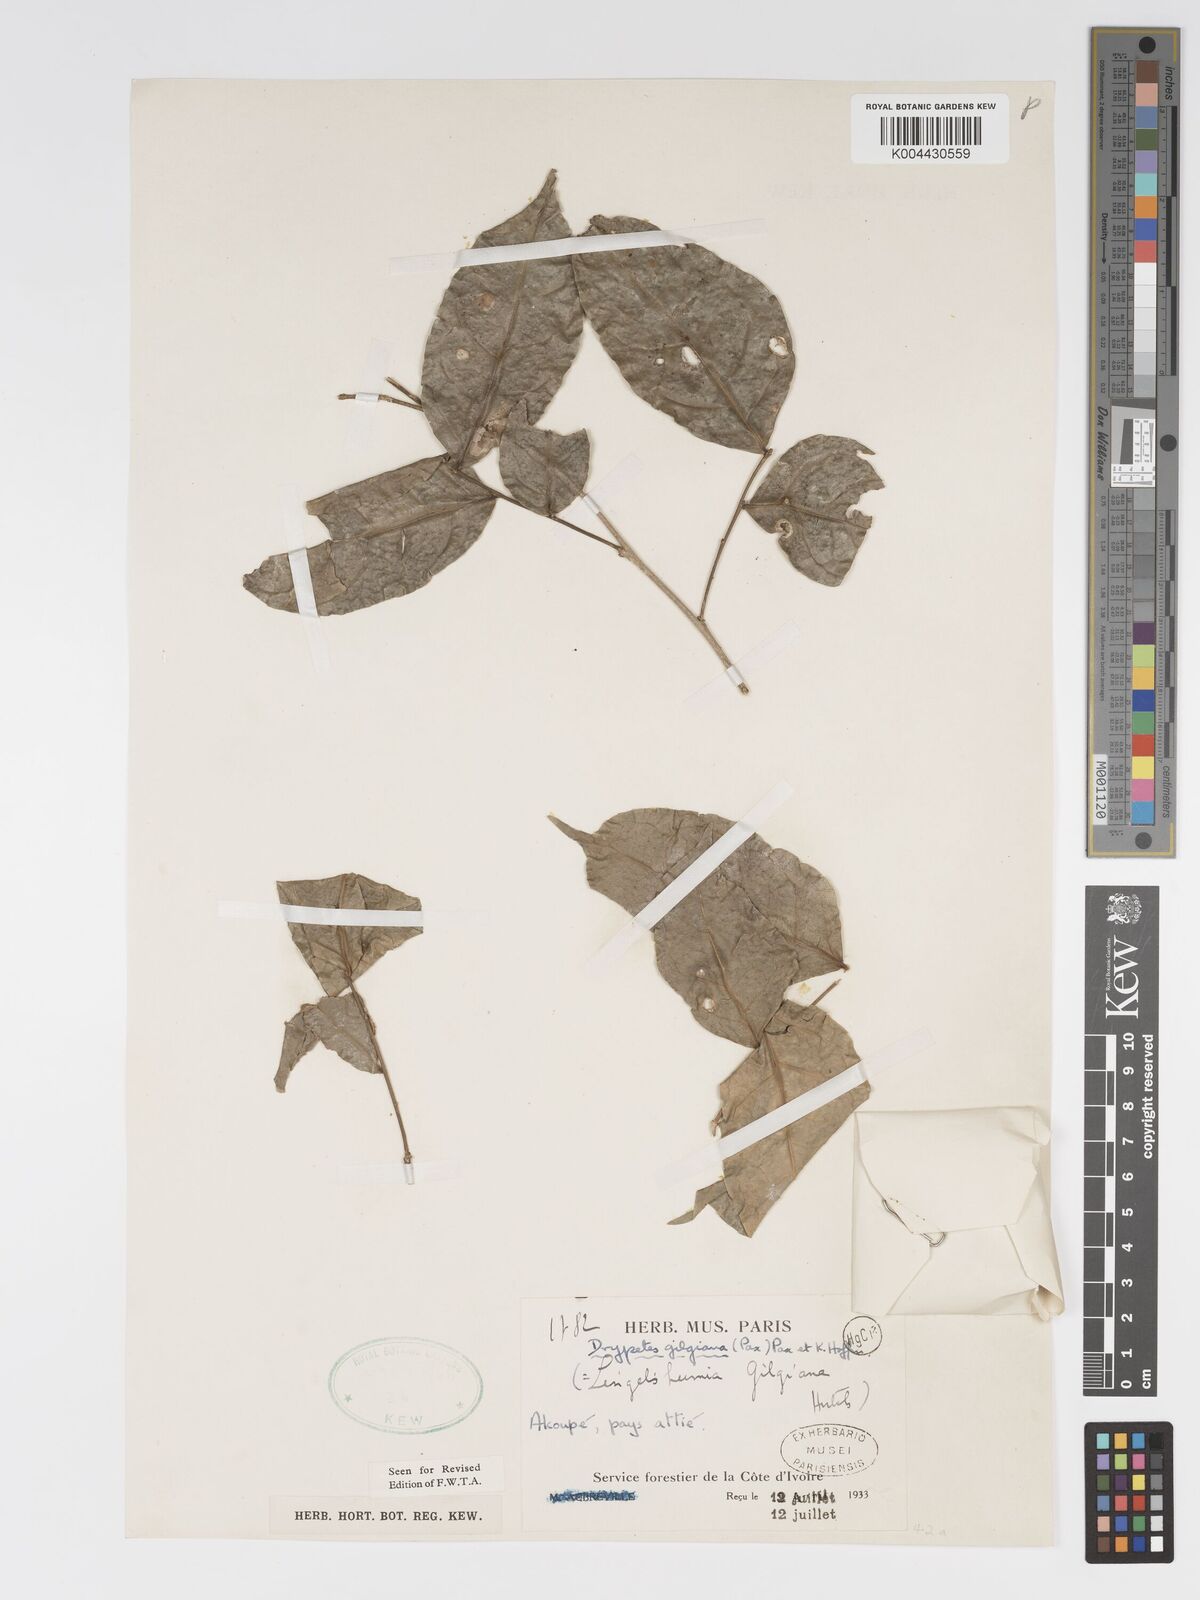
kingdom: Plantae
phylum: Tracheophyta
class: Magnoliopsida
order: Malpighiales
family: Putranjivaceae
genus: Drypetes
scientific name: Drypetes gilgiana
